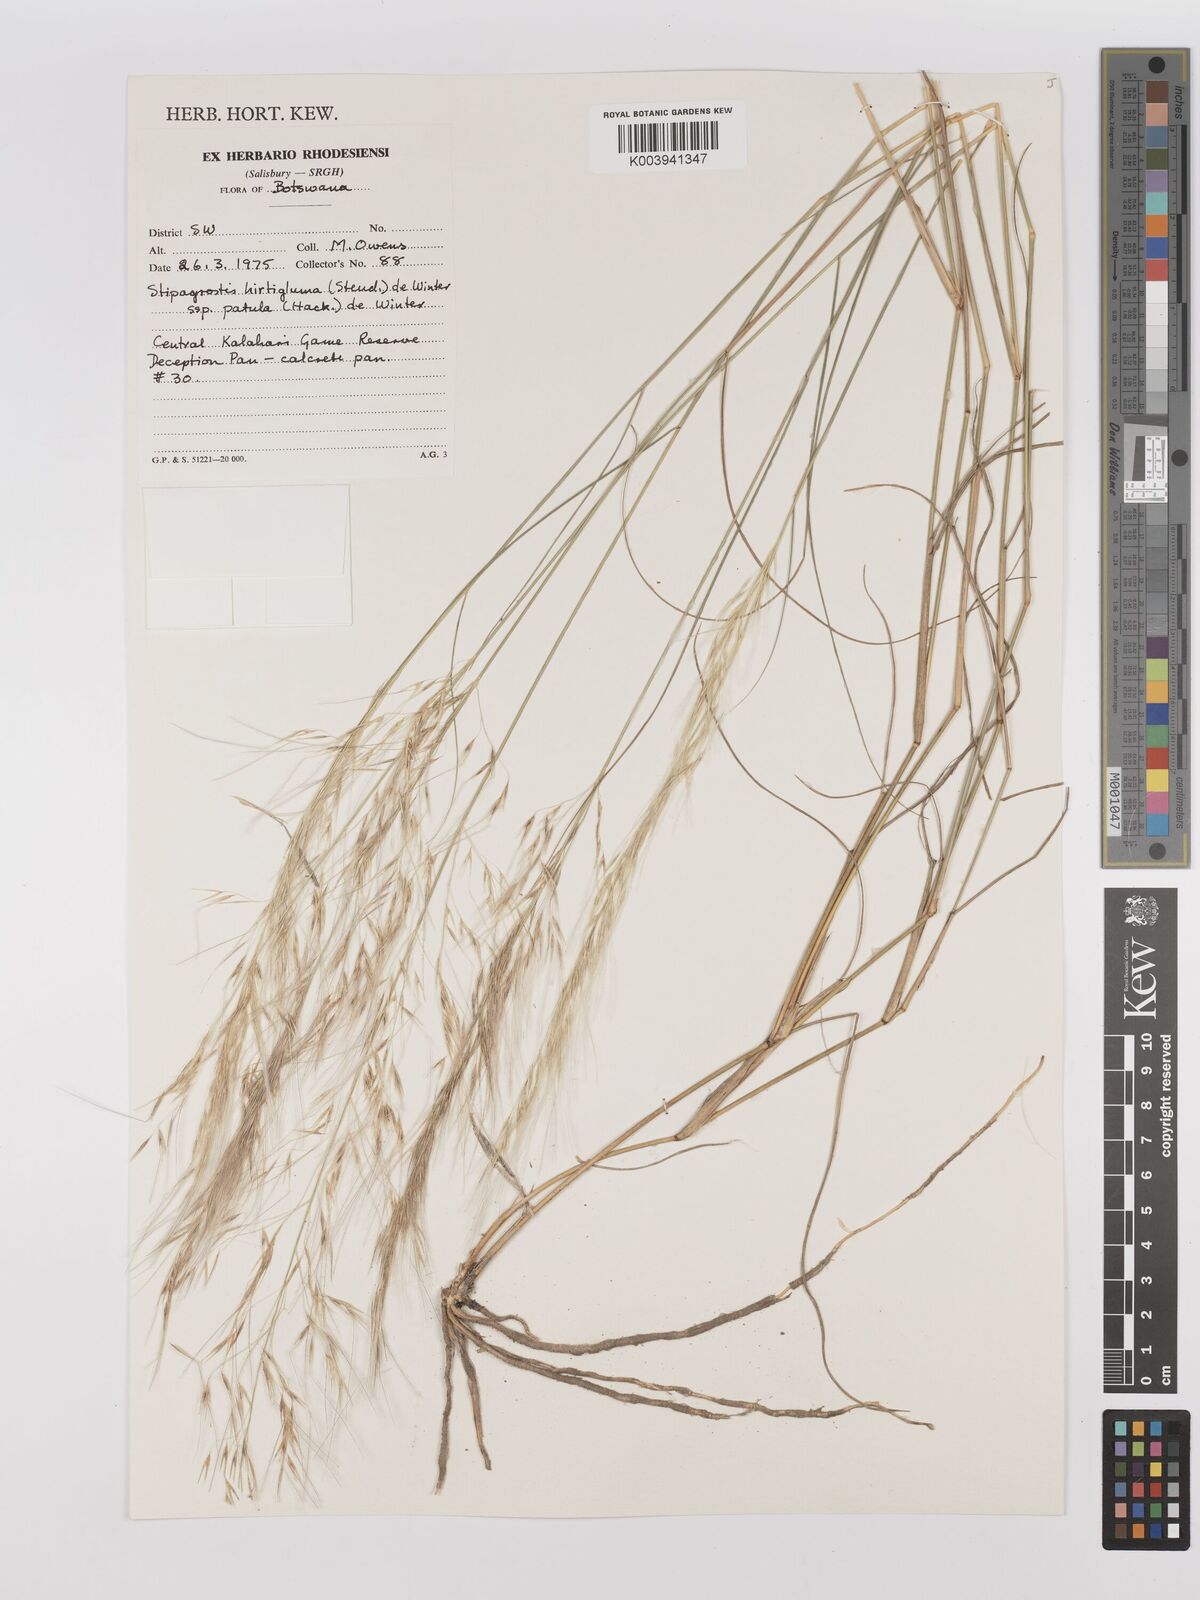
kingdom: Plantae
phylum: Tracheophyta
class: Liliopsida
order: Poales
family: Poaceae
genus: Stipagrostis
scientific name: Stipagrostis hirtigluma
